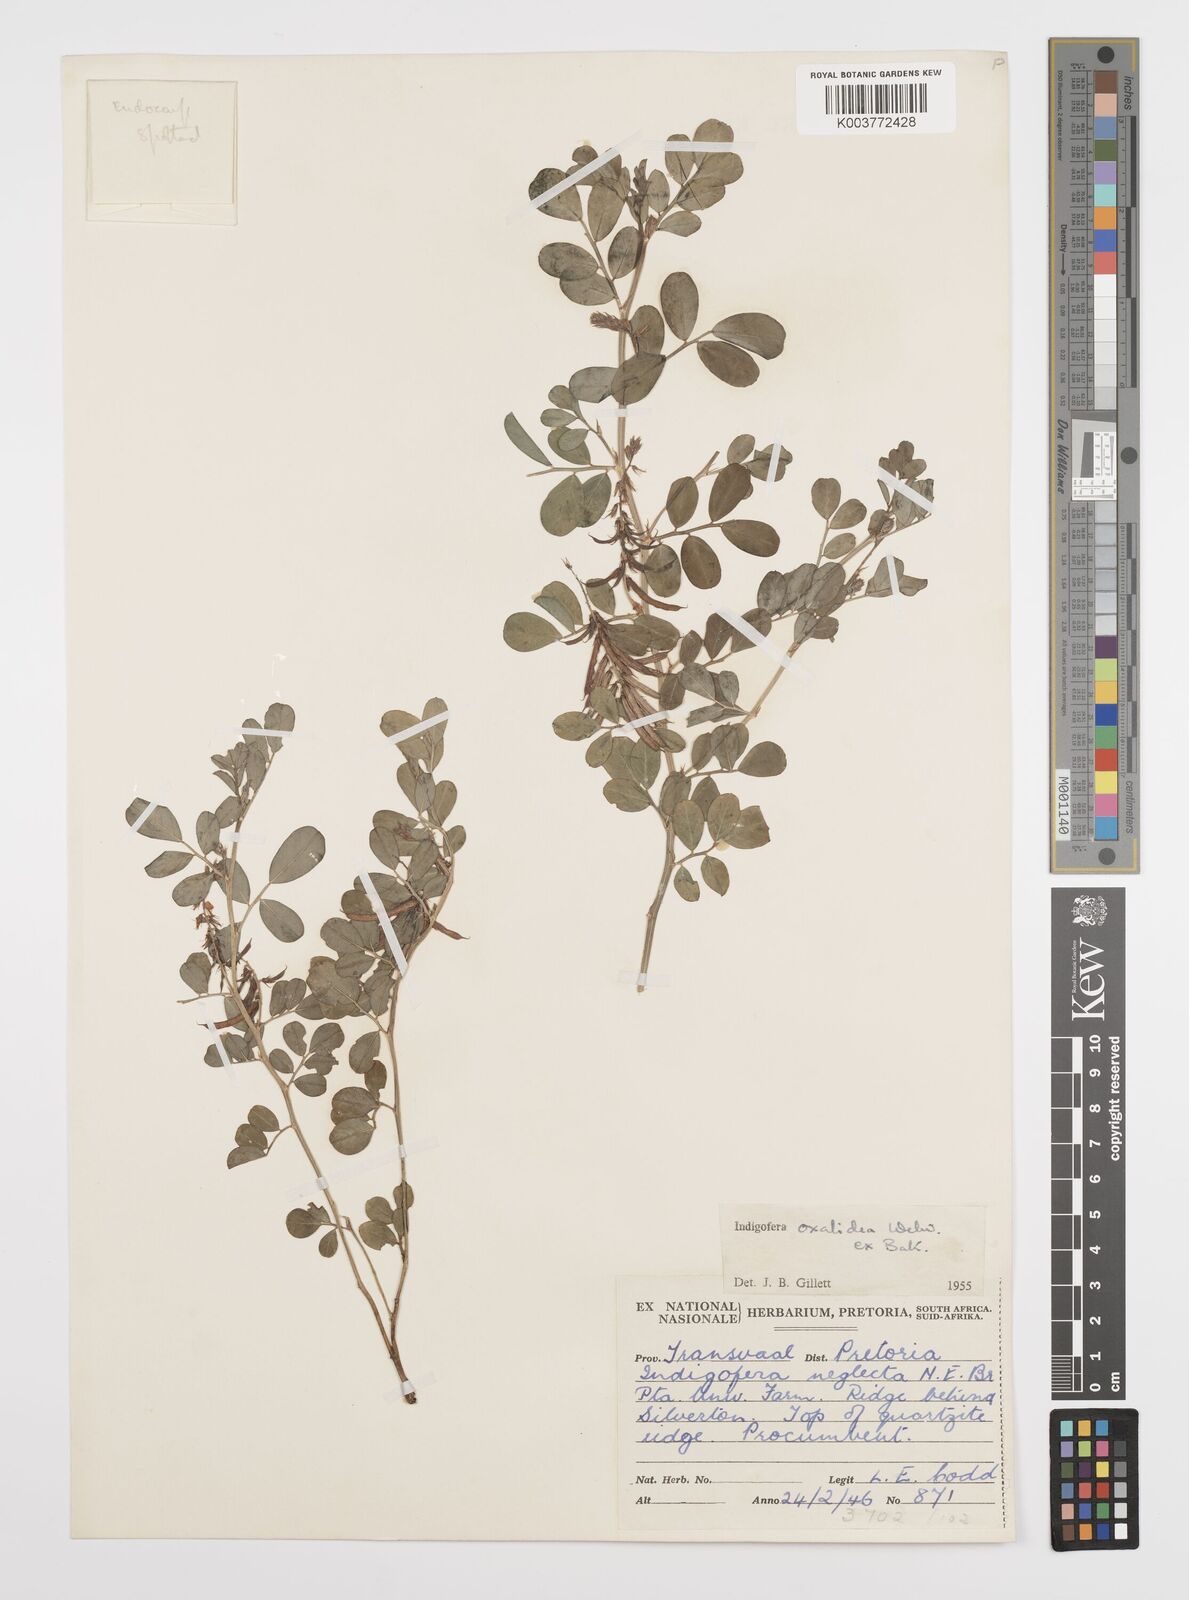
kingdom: Plantae
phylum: Tracheophyta
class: Magnoliopsida
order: Fabales
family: Fabaceae
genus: Indigofera
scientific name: Indigofera oxalidea
